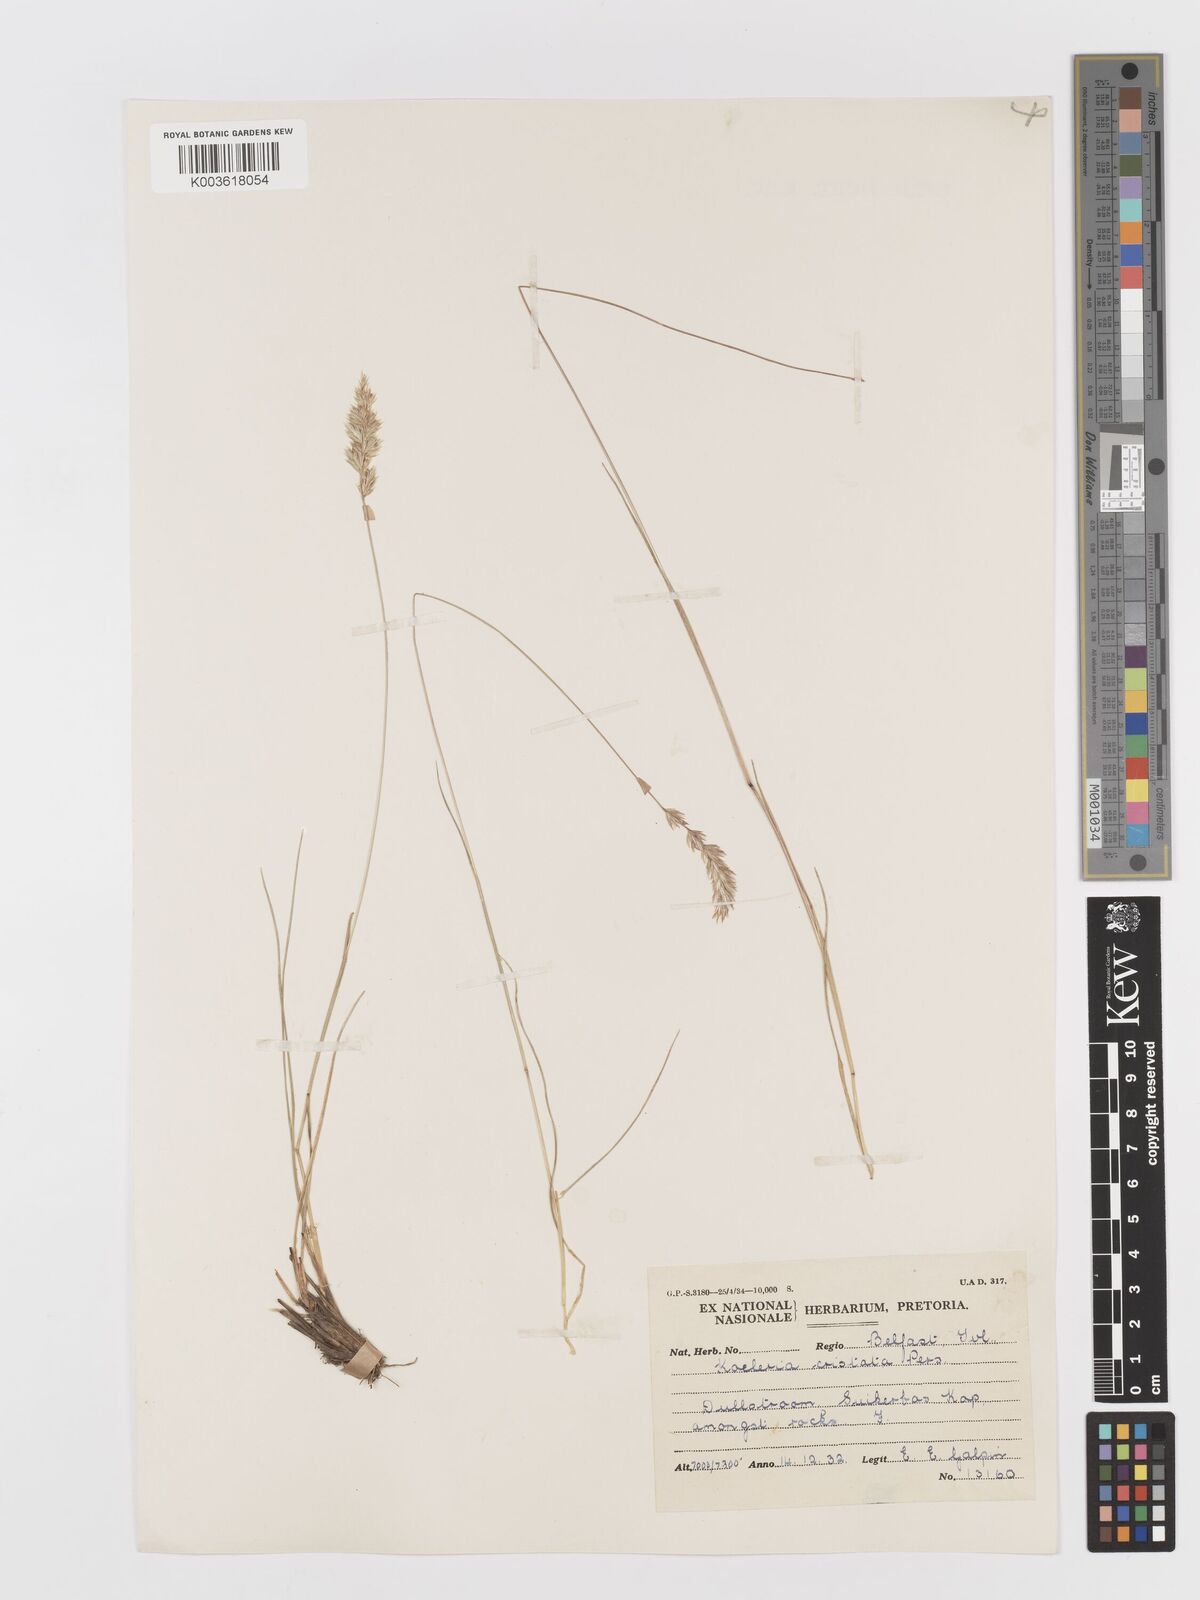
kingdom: Plantae
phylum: Tracheophyta
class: Liliopsida
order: Poales
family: Poaceae
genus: Koeleria
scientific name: Koeleria capensis
